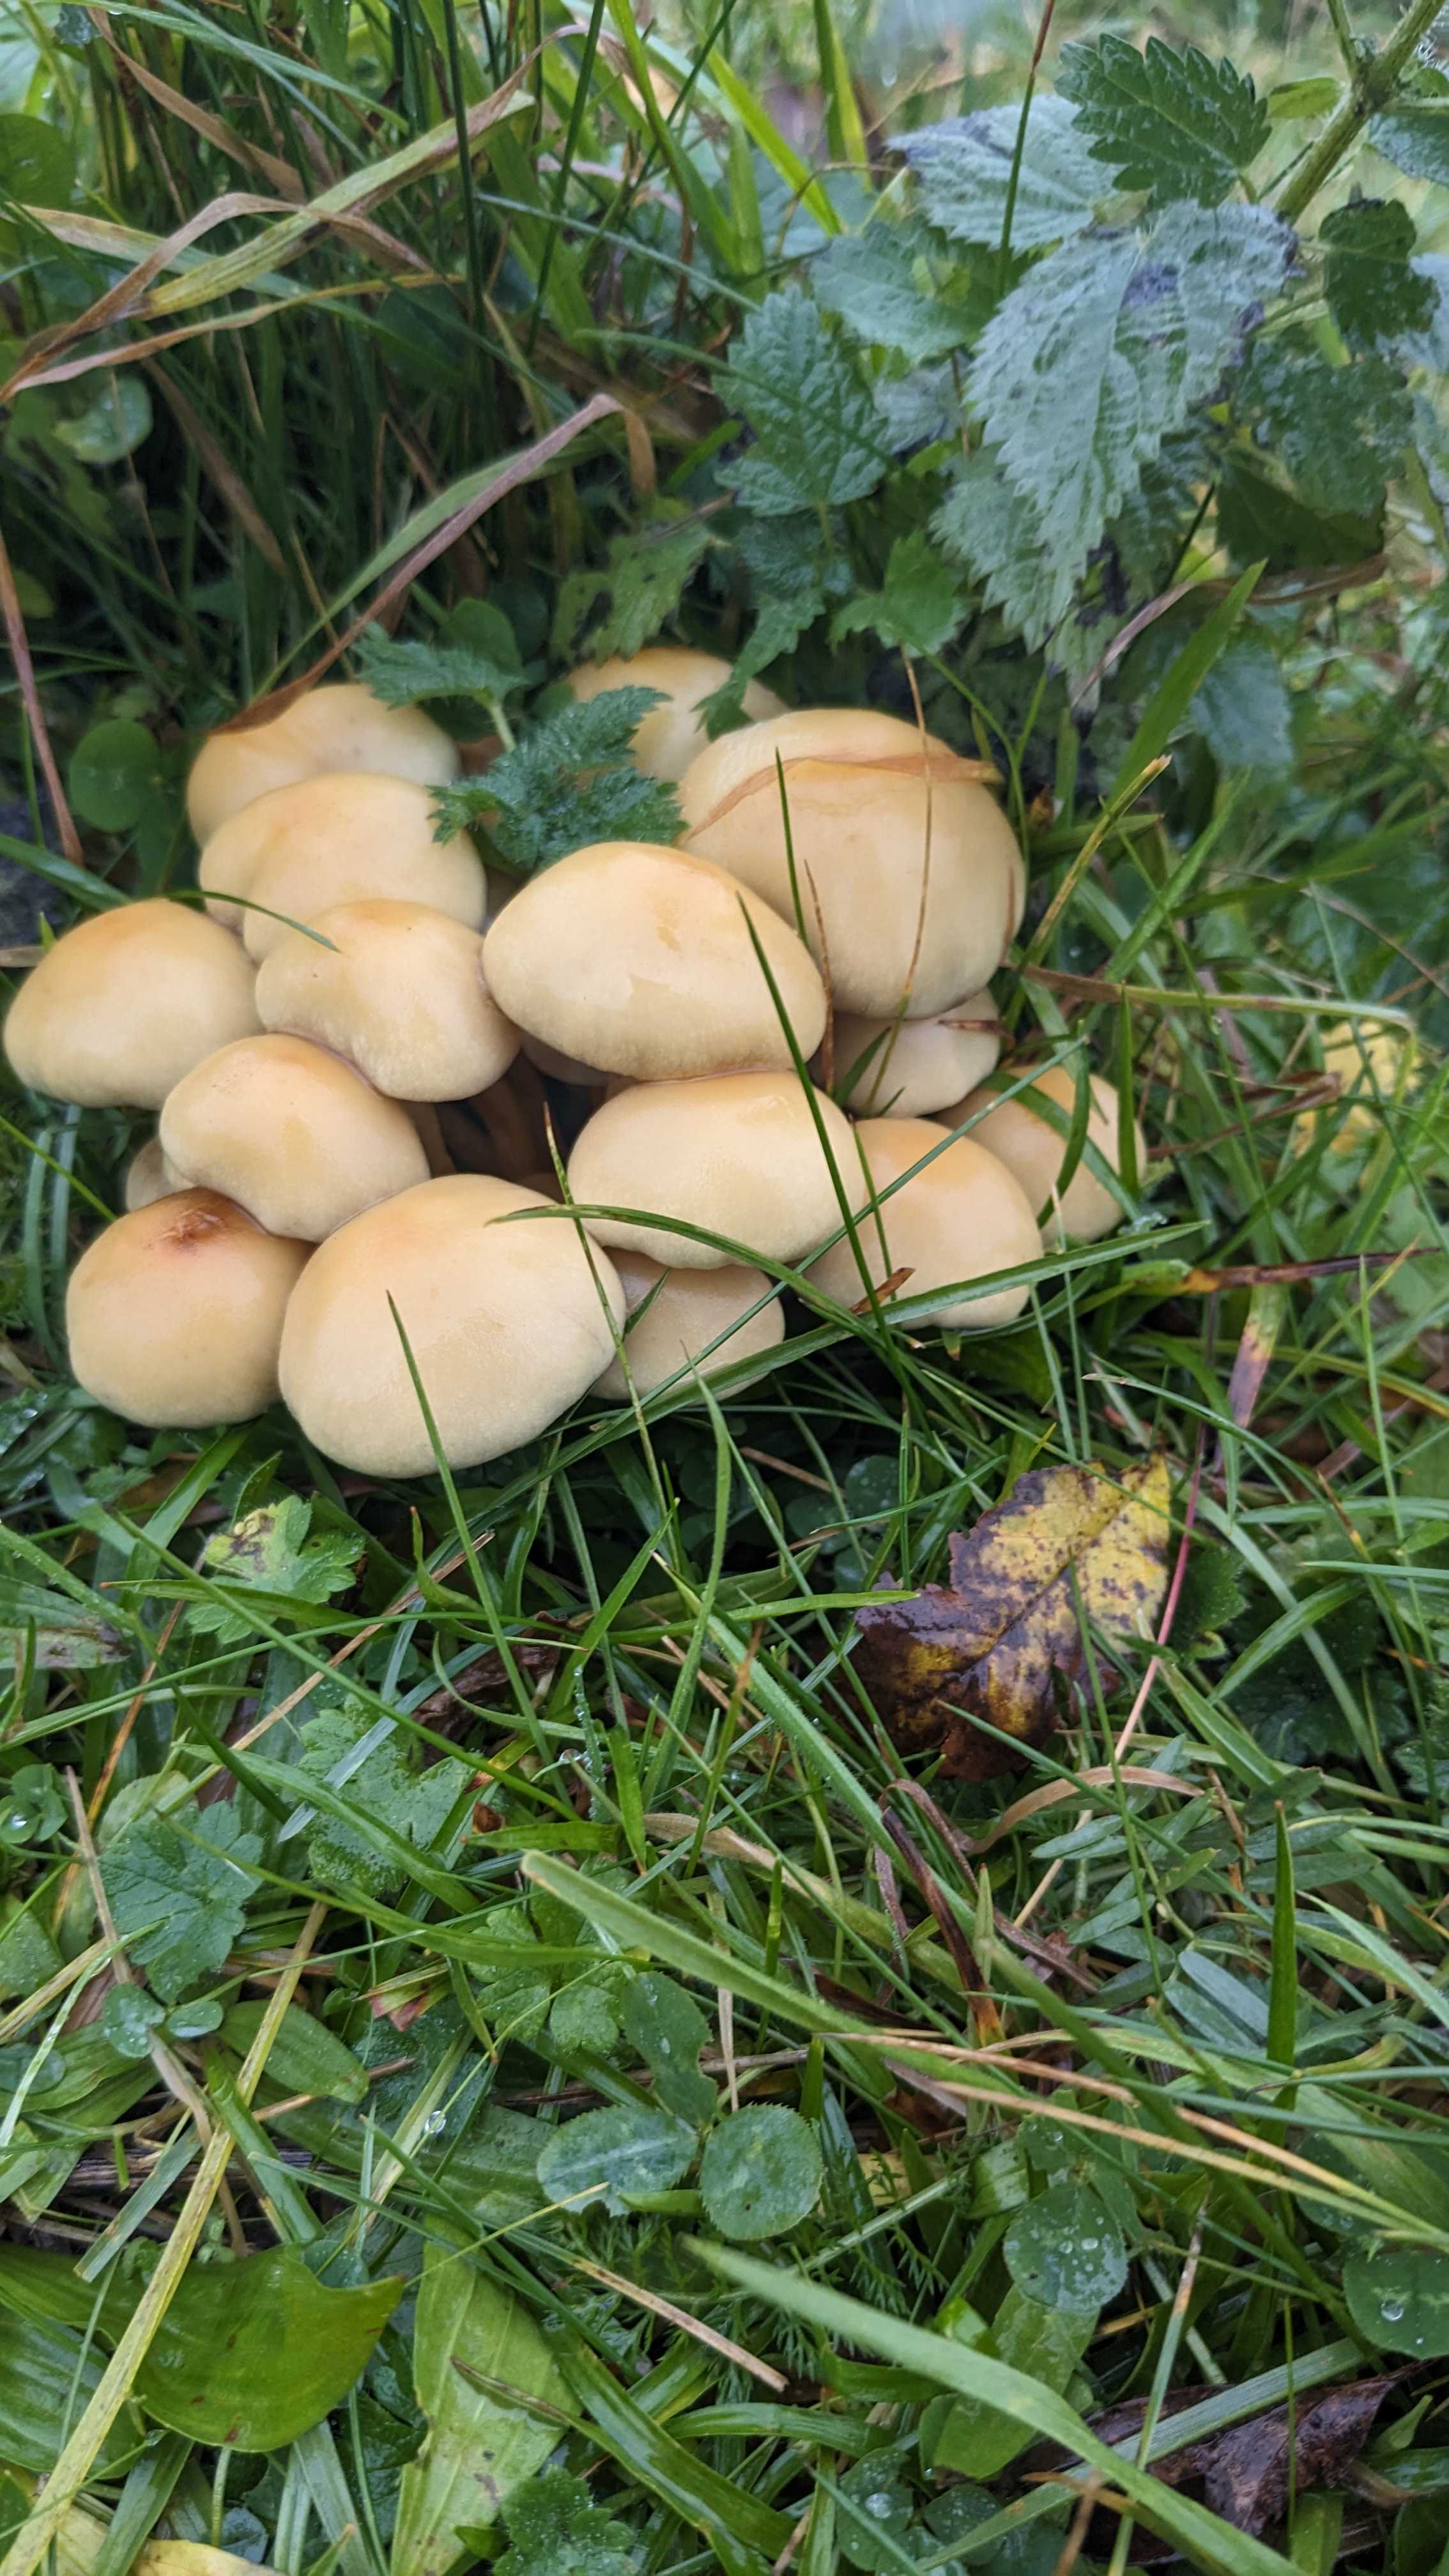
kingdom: Fungi
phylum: Basidiomycota
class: Agaricomycetes
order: Agaricales
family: Strophariaceae
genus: Hypholoma
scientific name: Hypholoma fasciculare
